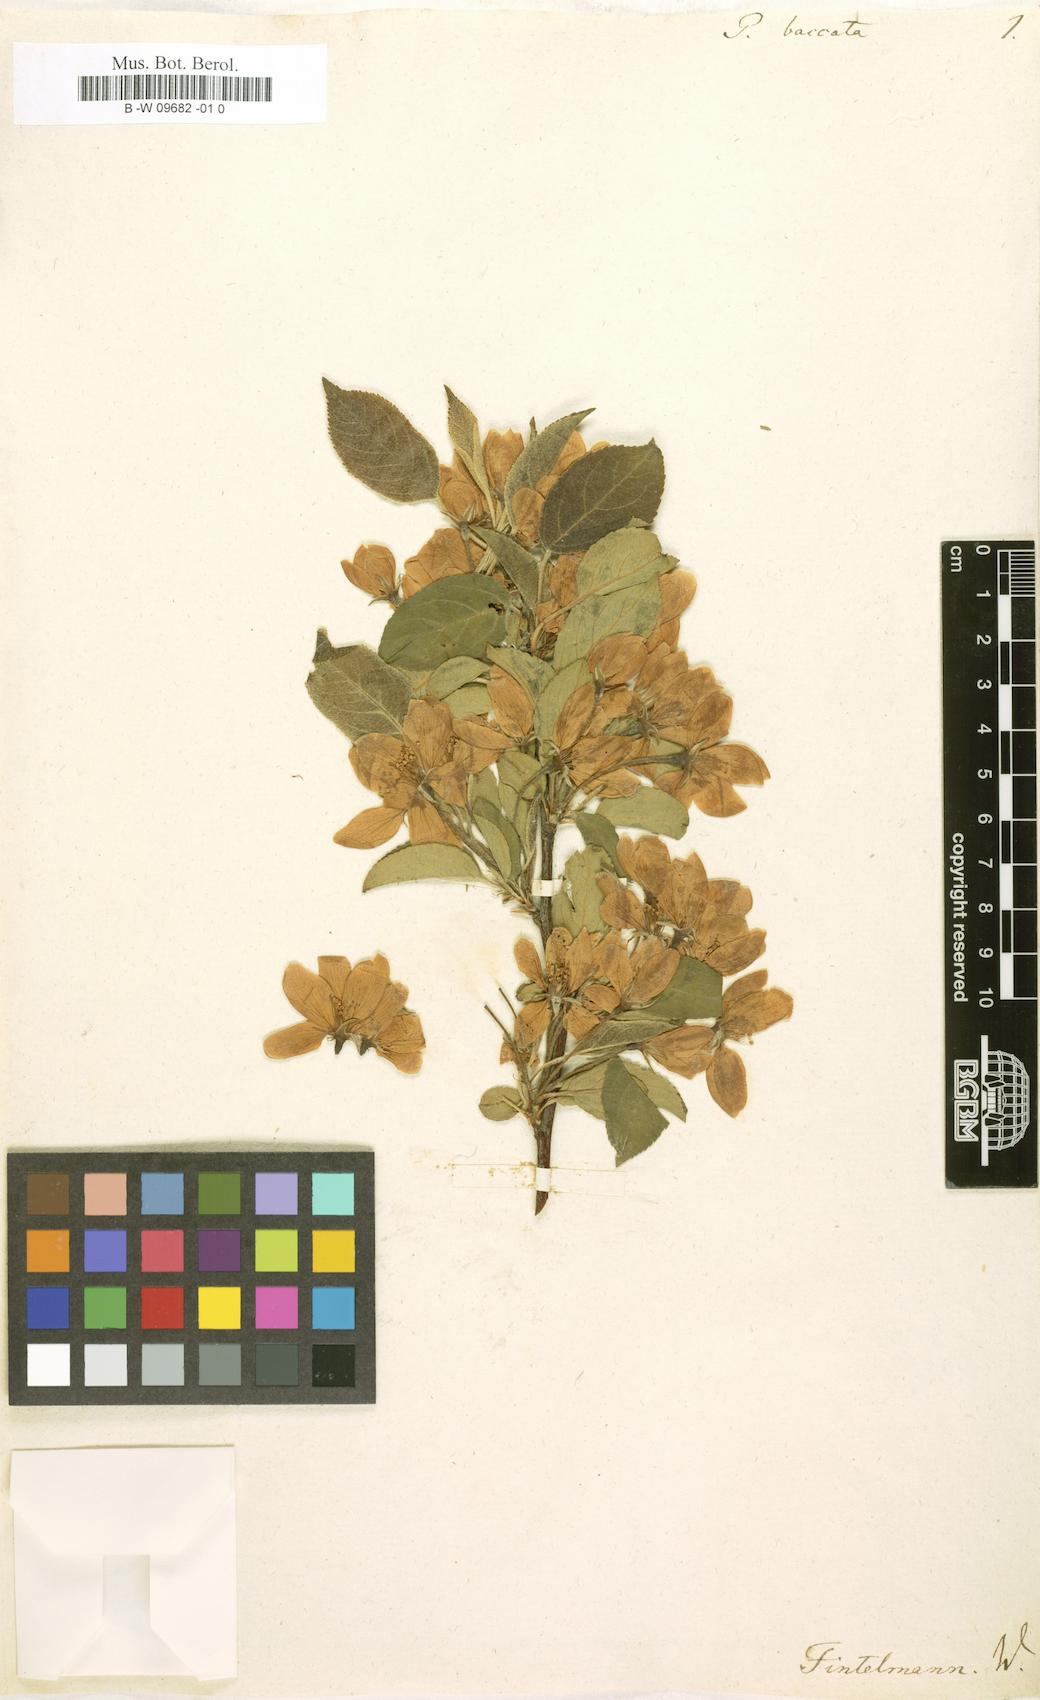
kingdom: Plantae
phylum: Tracheophyta
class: Magnoliopsida
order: Rosales
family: Rosaceae
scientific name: Rosaceae
